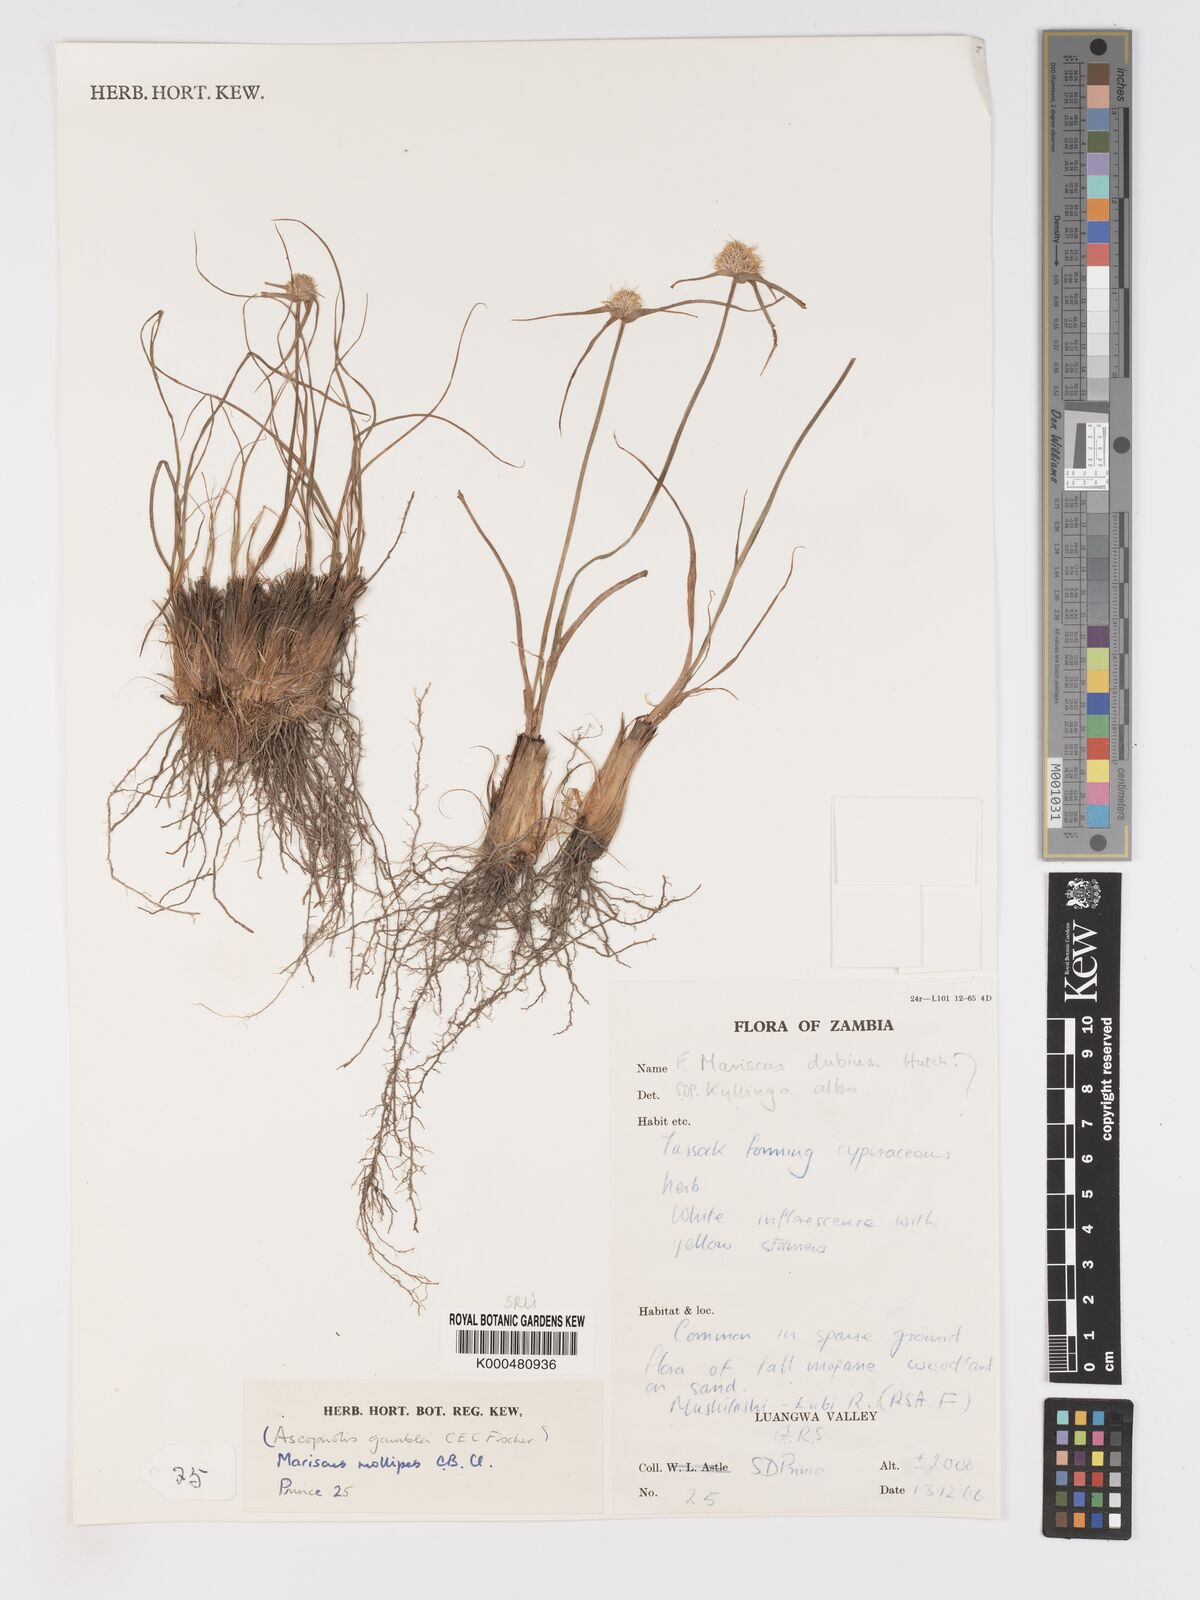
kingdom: Plantae
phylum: Tracheophyta
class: Liliopsida
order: Poales
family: Cyperaceae
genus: Cyperus
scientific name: Cyperus mollipes
